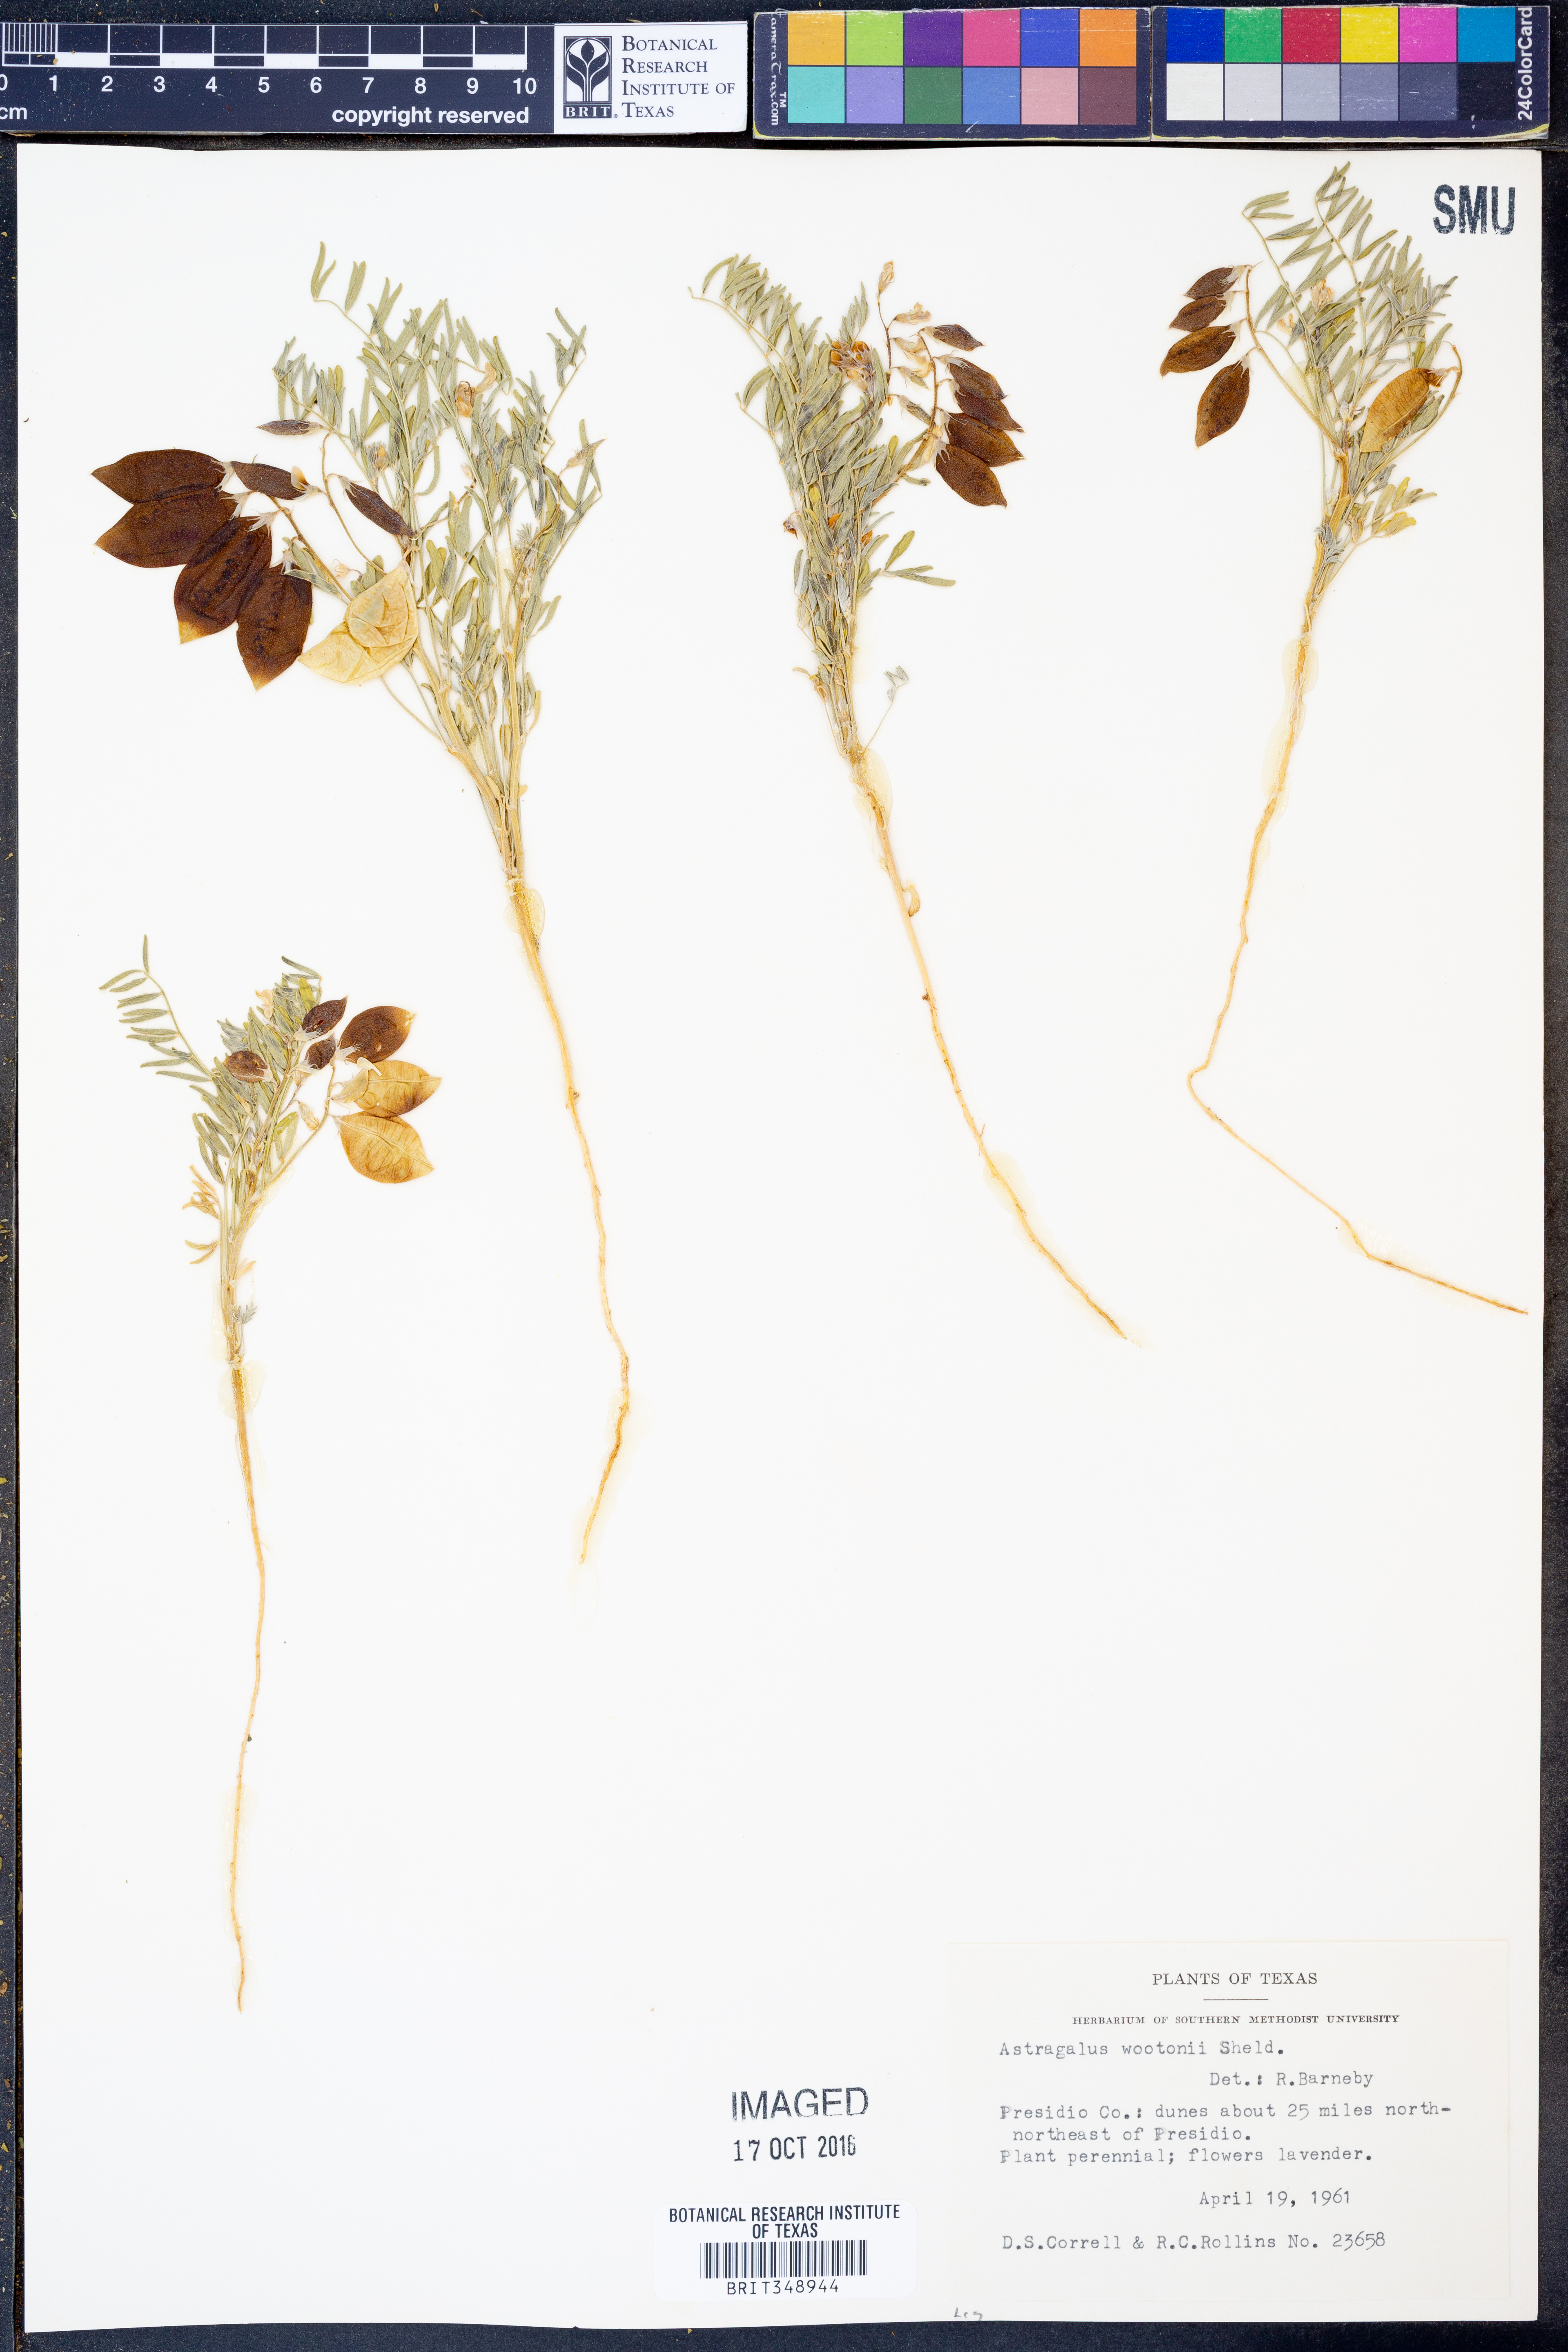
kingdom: Plantae
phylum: Tracheophyta
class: Magnoliopsida
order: Fabales
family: Fabaceae
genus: Astragalus
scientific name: Astragalus wootonii
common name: Wooton's milk-vetch
